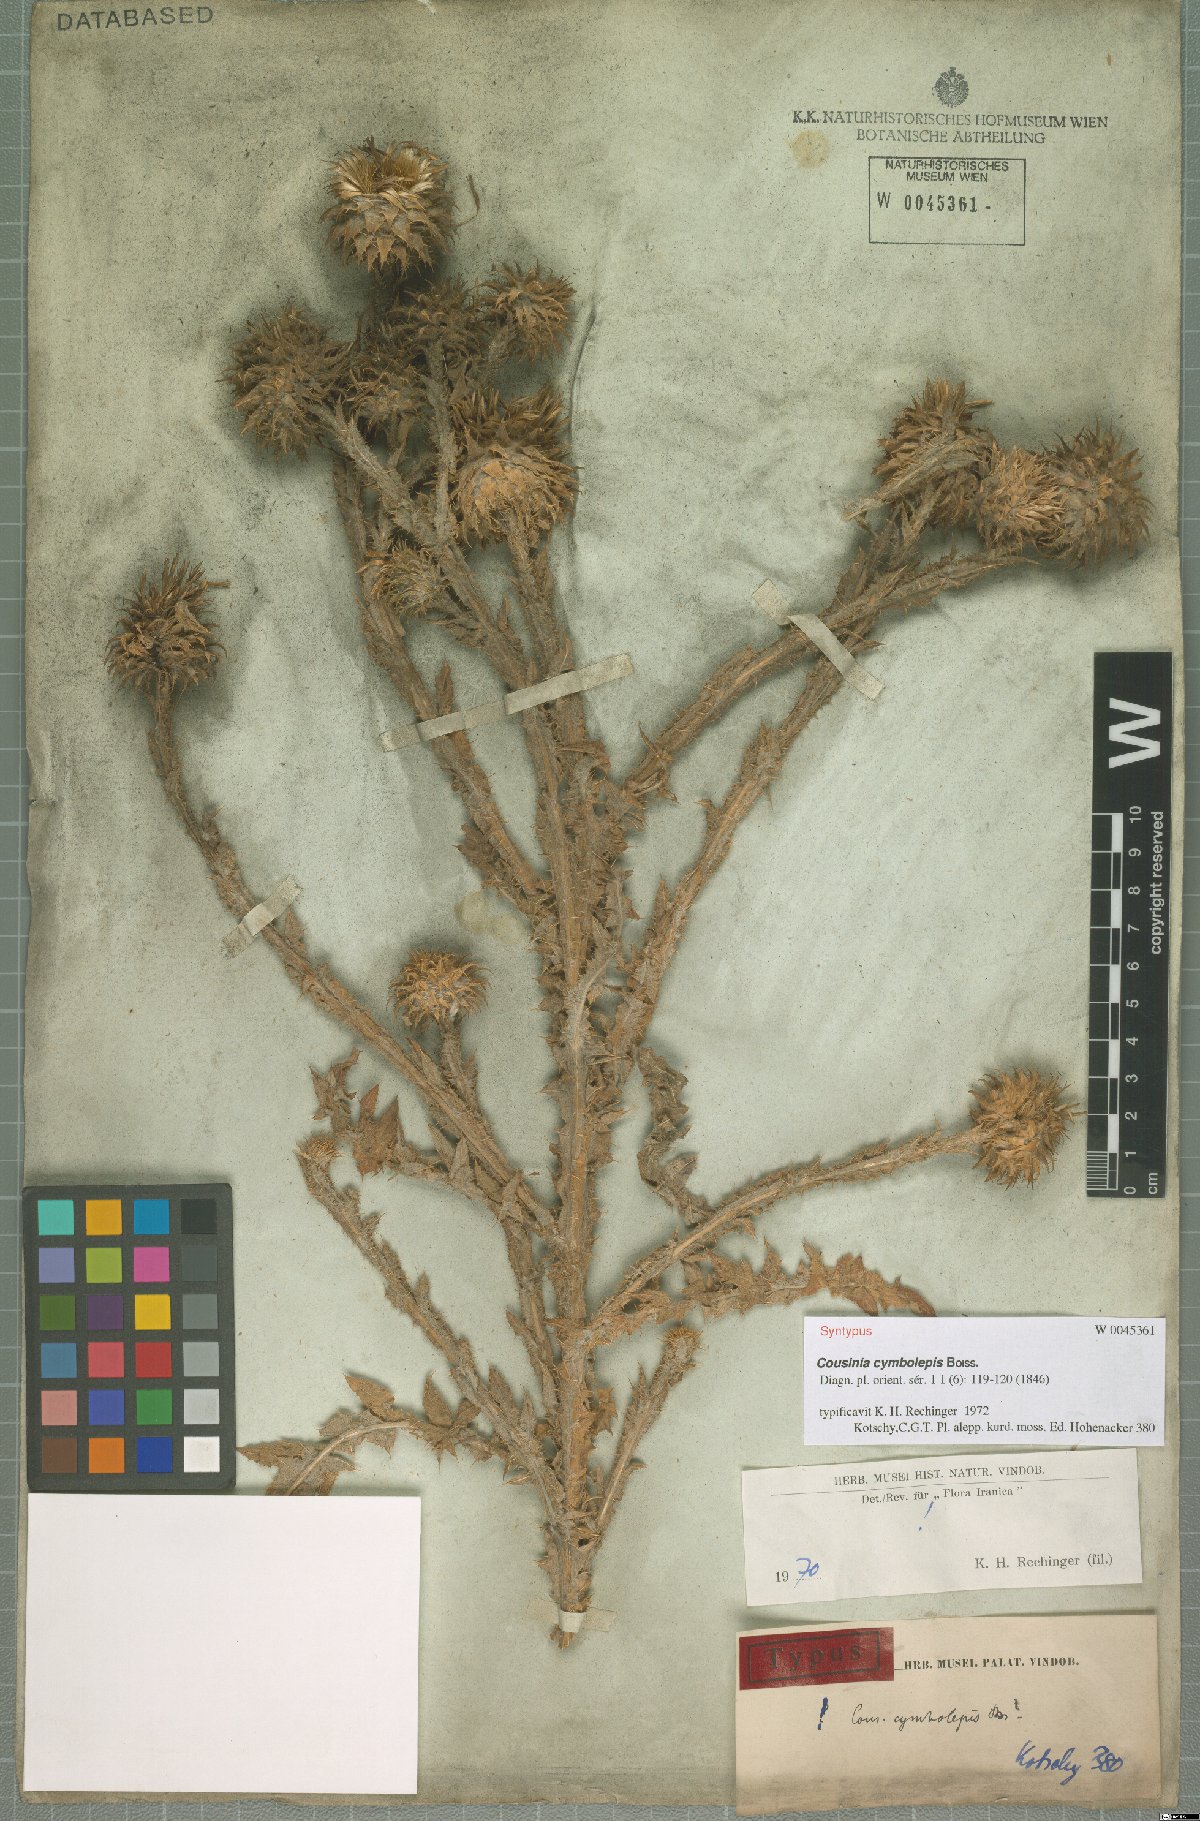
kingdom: Plantae
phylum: Tracheophyta
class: Magnoliopsida
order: Asterales
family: Asteraceae
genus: Cousinia
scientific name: Cousinia odontolepis
